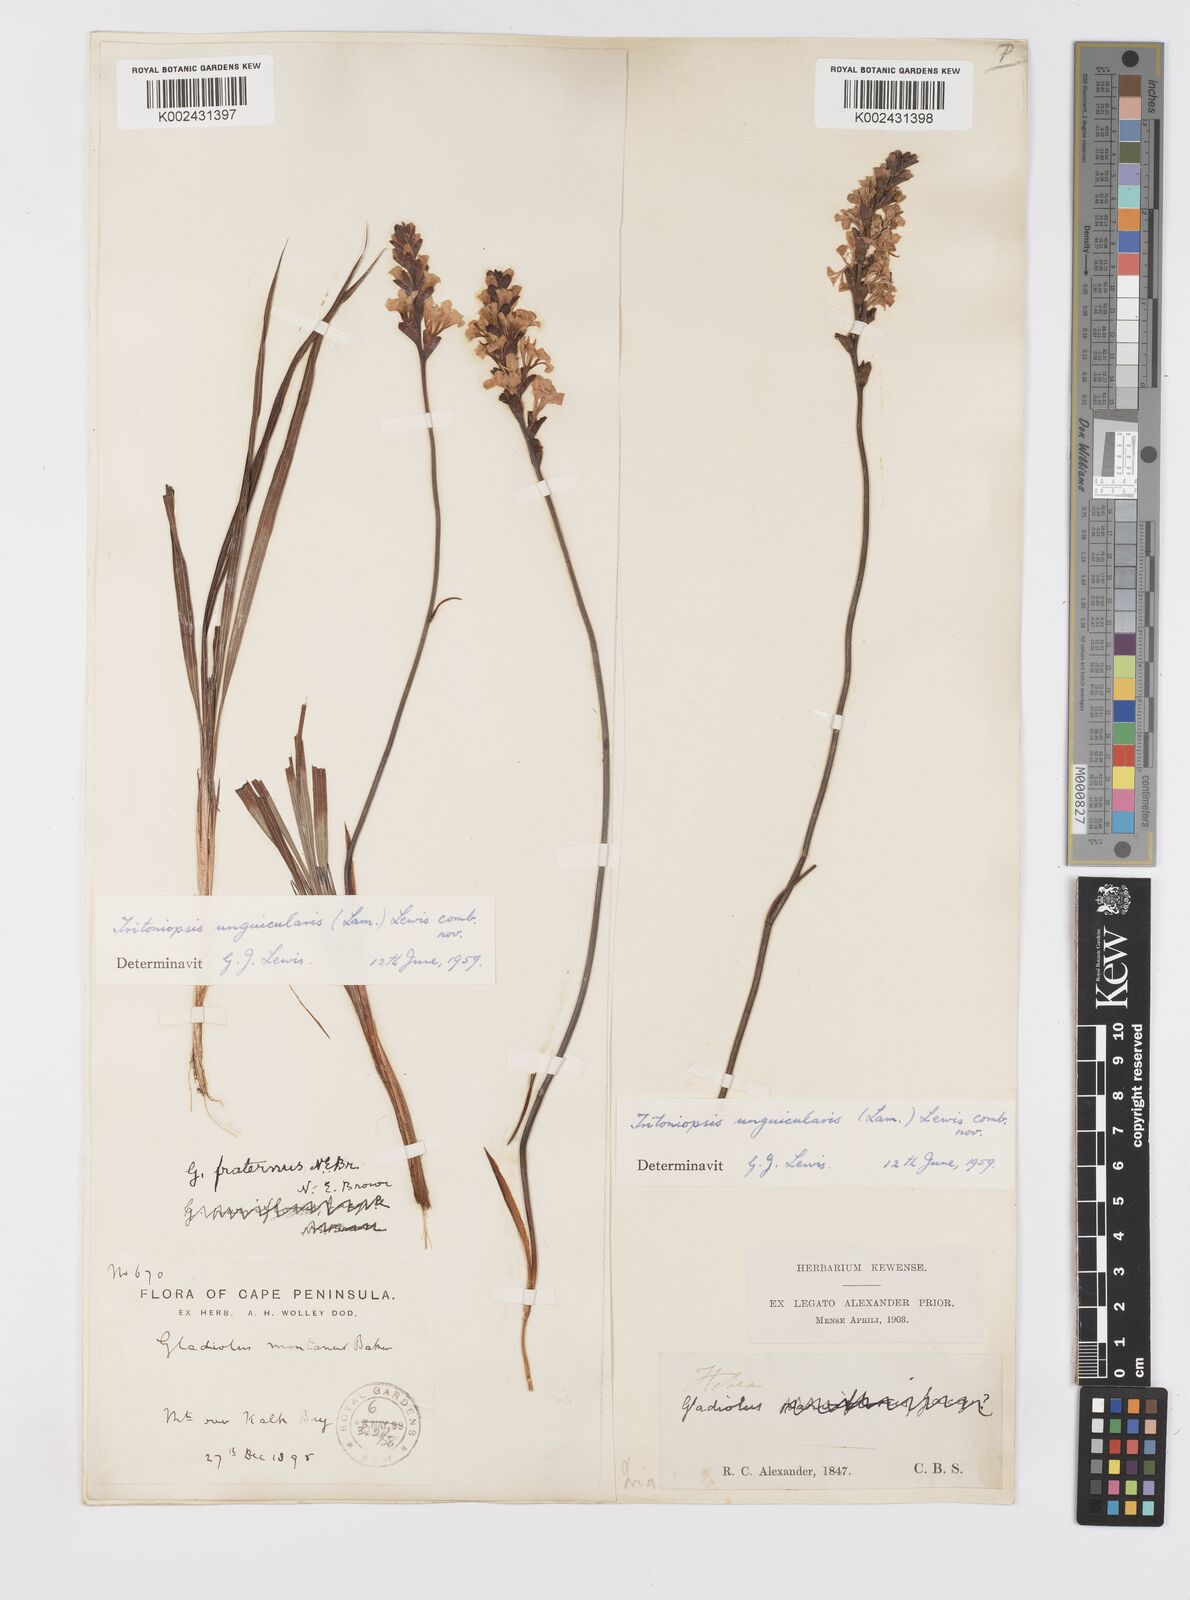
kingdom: Plantae
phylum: Tracheophyta
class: Liliopsida
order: Asparagales
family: Iridaceae
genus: Tritoniopsis
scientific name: Tritoniopsis unguicularis
